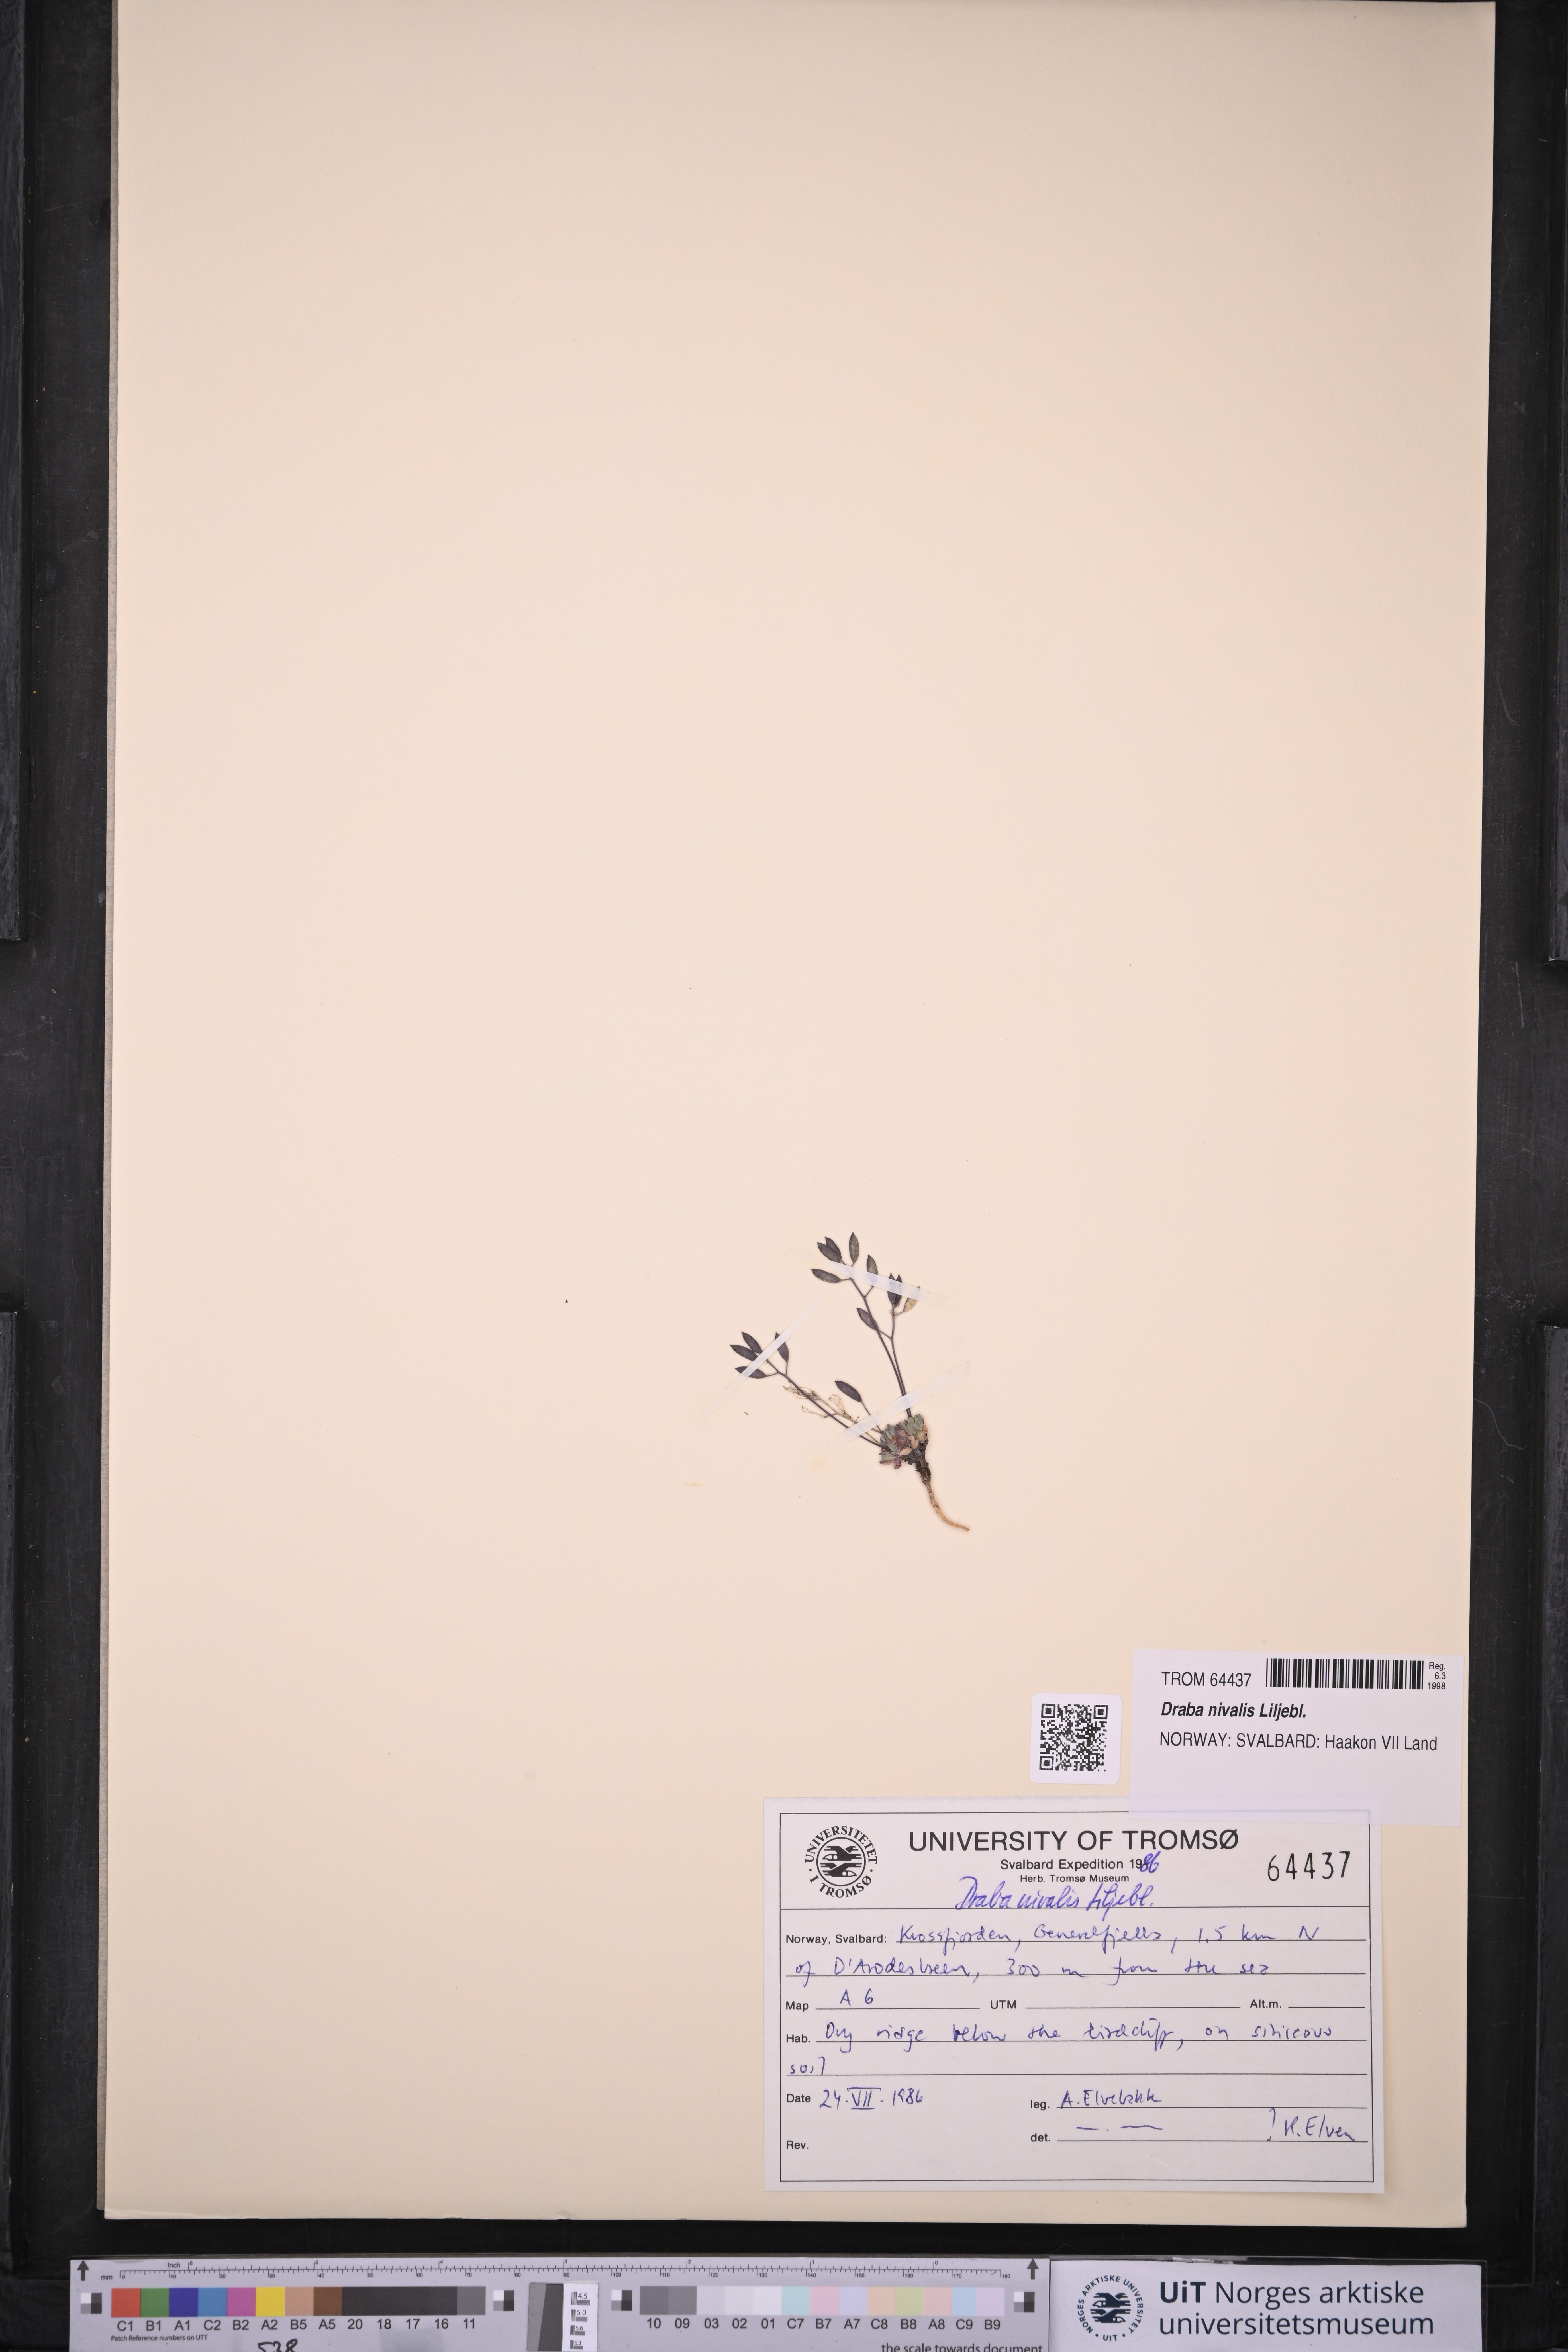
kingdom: Plantae
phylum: Tracheophyta
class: Magnoliopsida
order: Brassicales
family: Brassicaceae
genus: Draba
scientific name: Draba nivalis
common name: Snow draba
